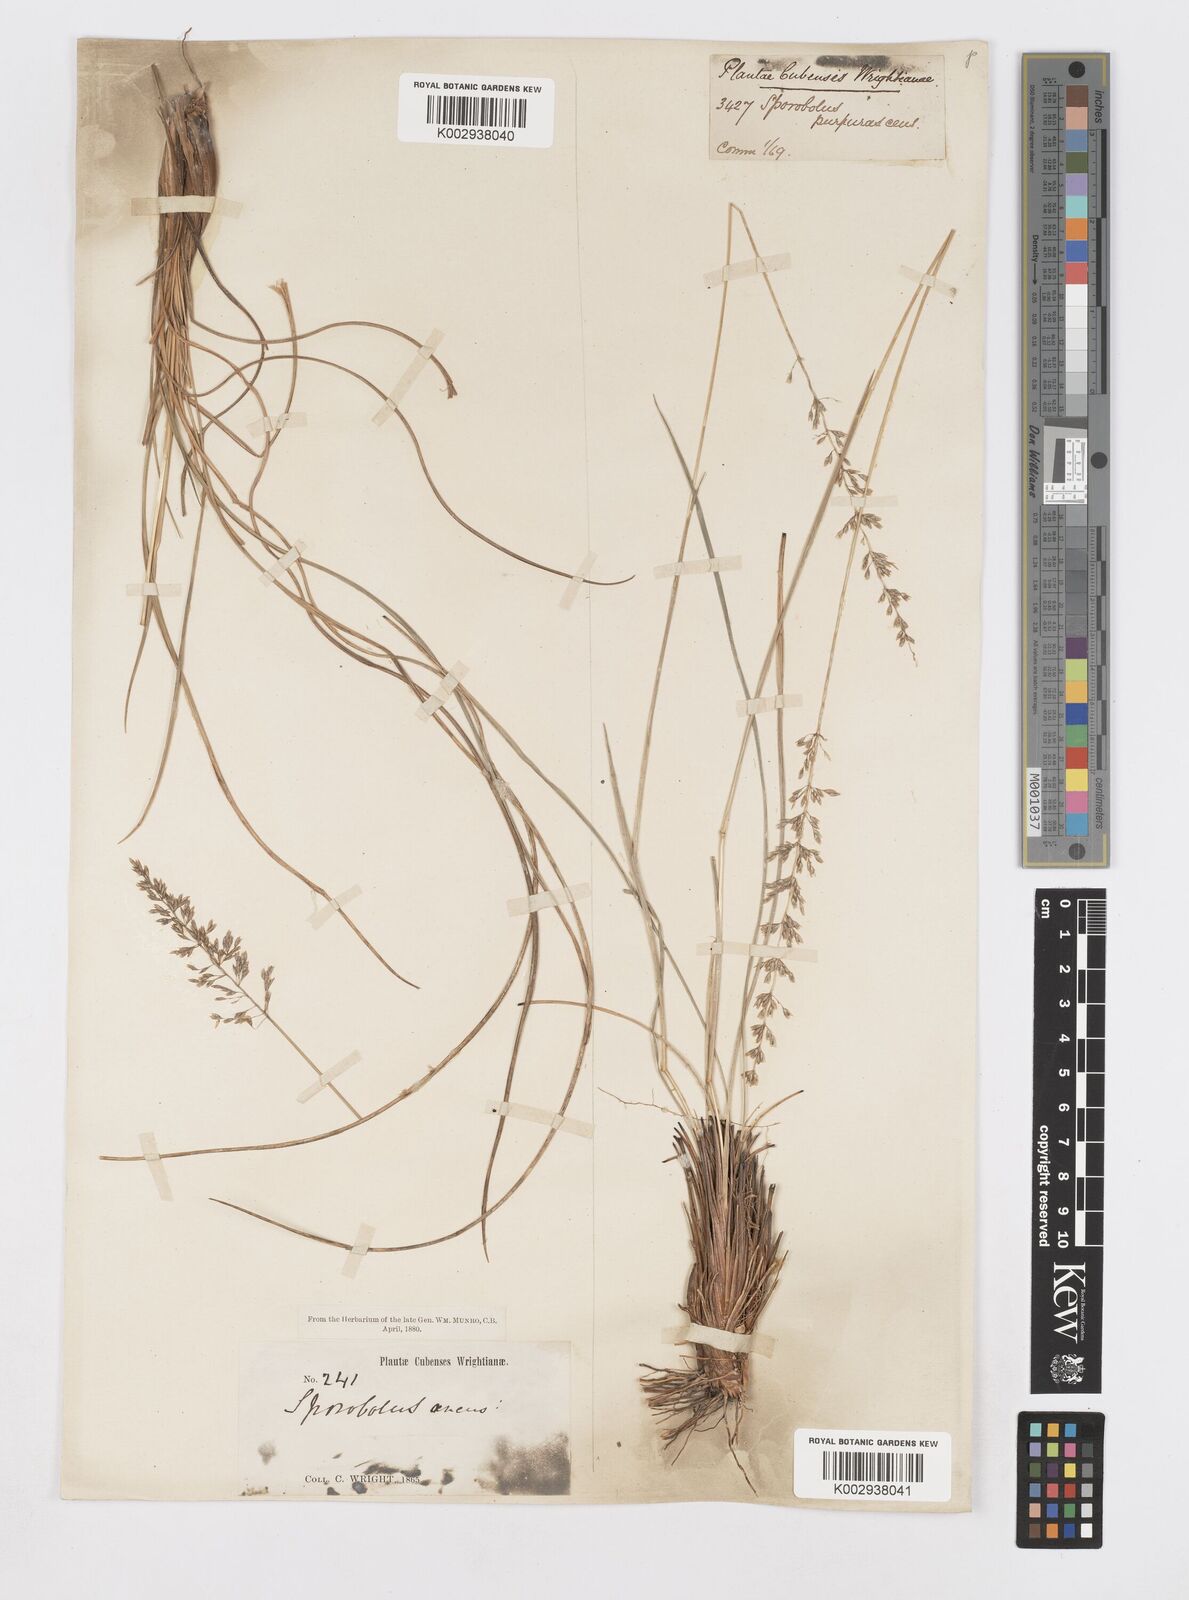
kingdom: Plantae
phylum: Tracheophyta
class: Liliopsida
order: Poales
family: Poaceae
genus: Sporobolus
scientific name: Sporobolus purpurascens
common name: Purple dropseed
